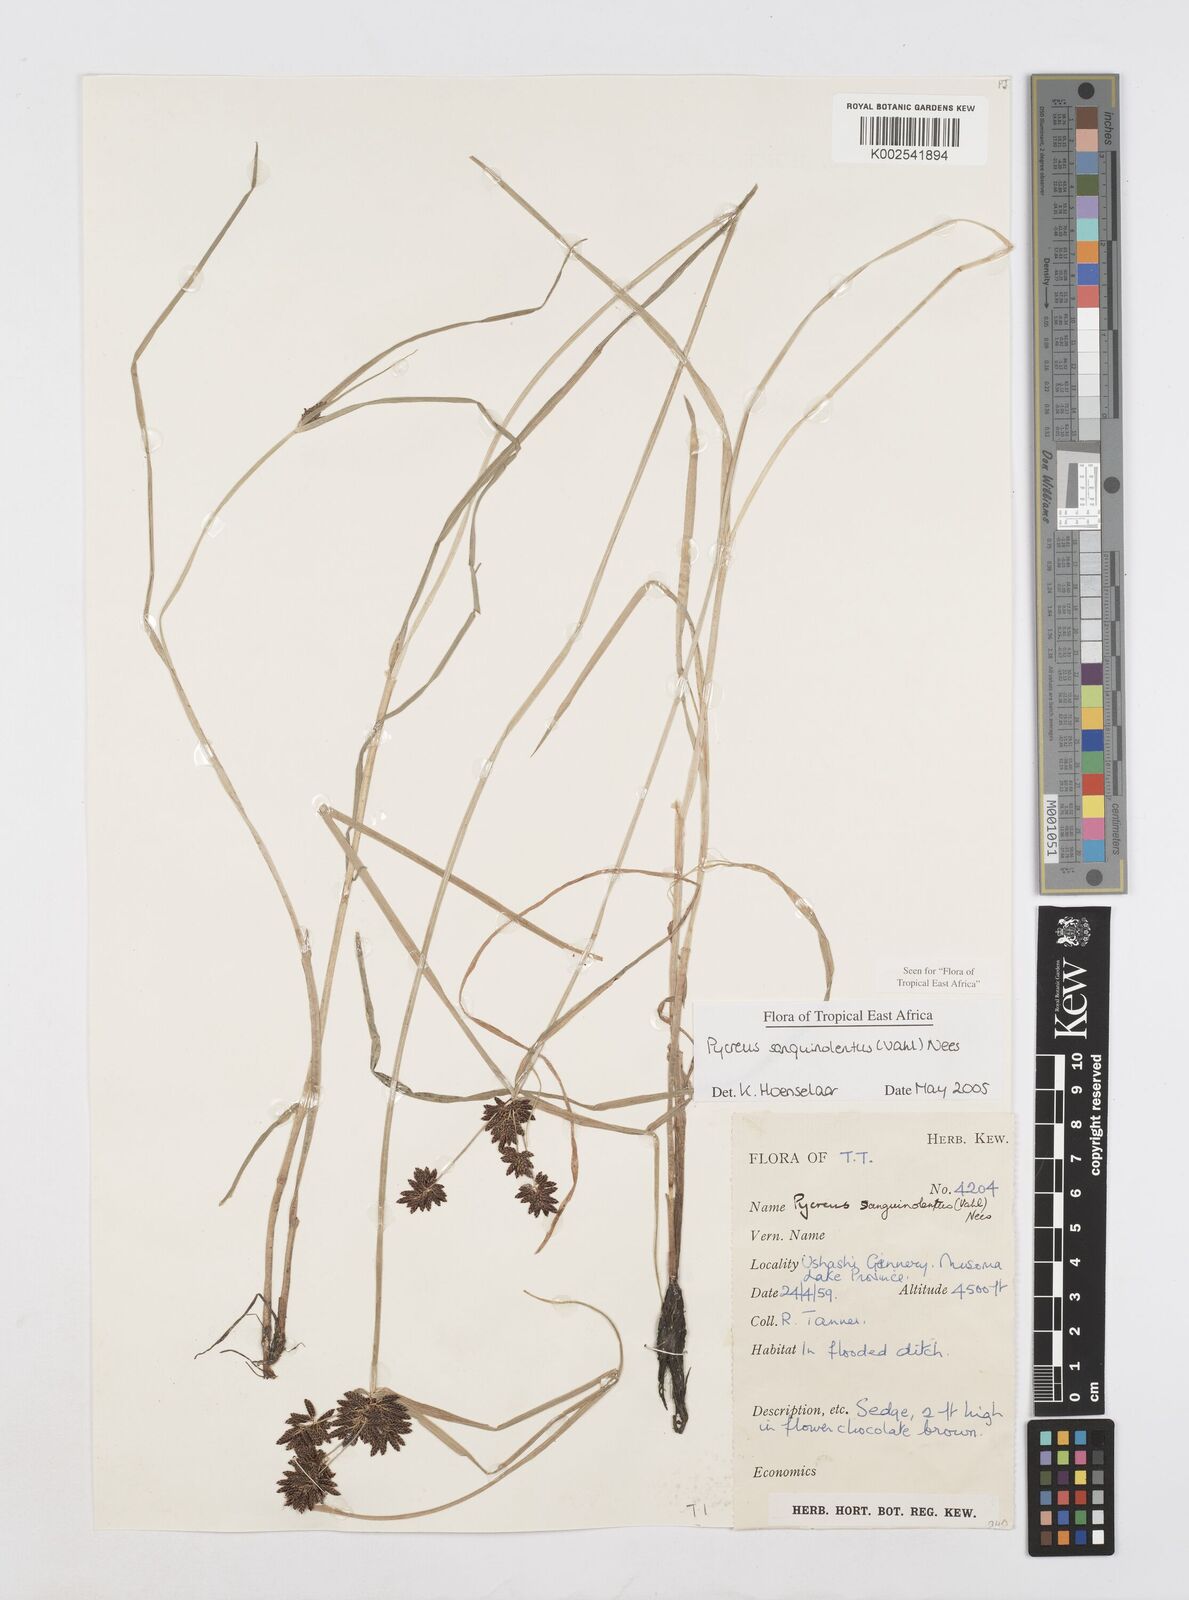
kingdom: Plantae
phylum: Tracheophyta
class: Liliopsida
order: Poales
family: Cyperaceae
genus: Cyperus
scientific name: Cyperus sanguinolentus
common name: Purpleglume flatsedge
